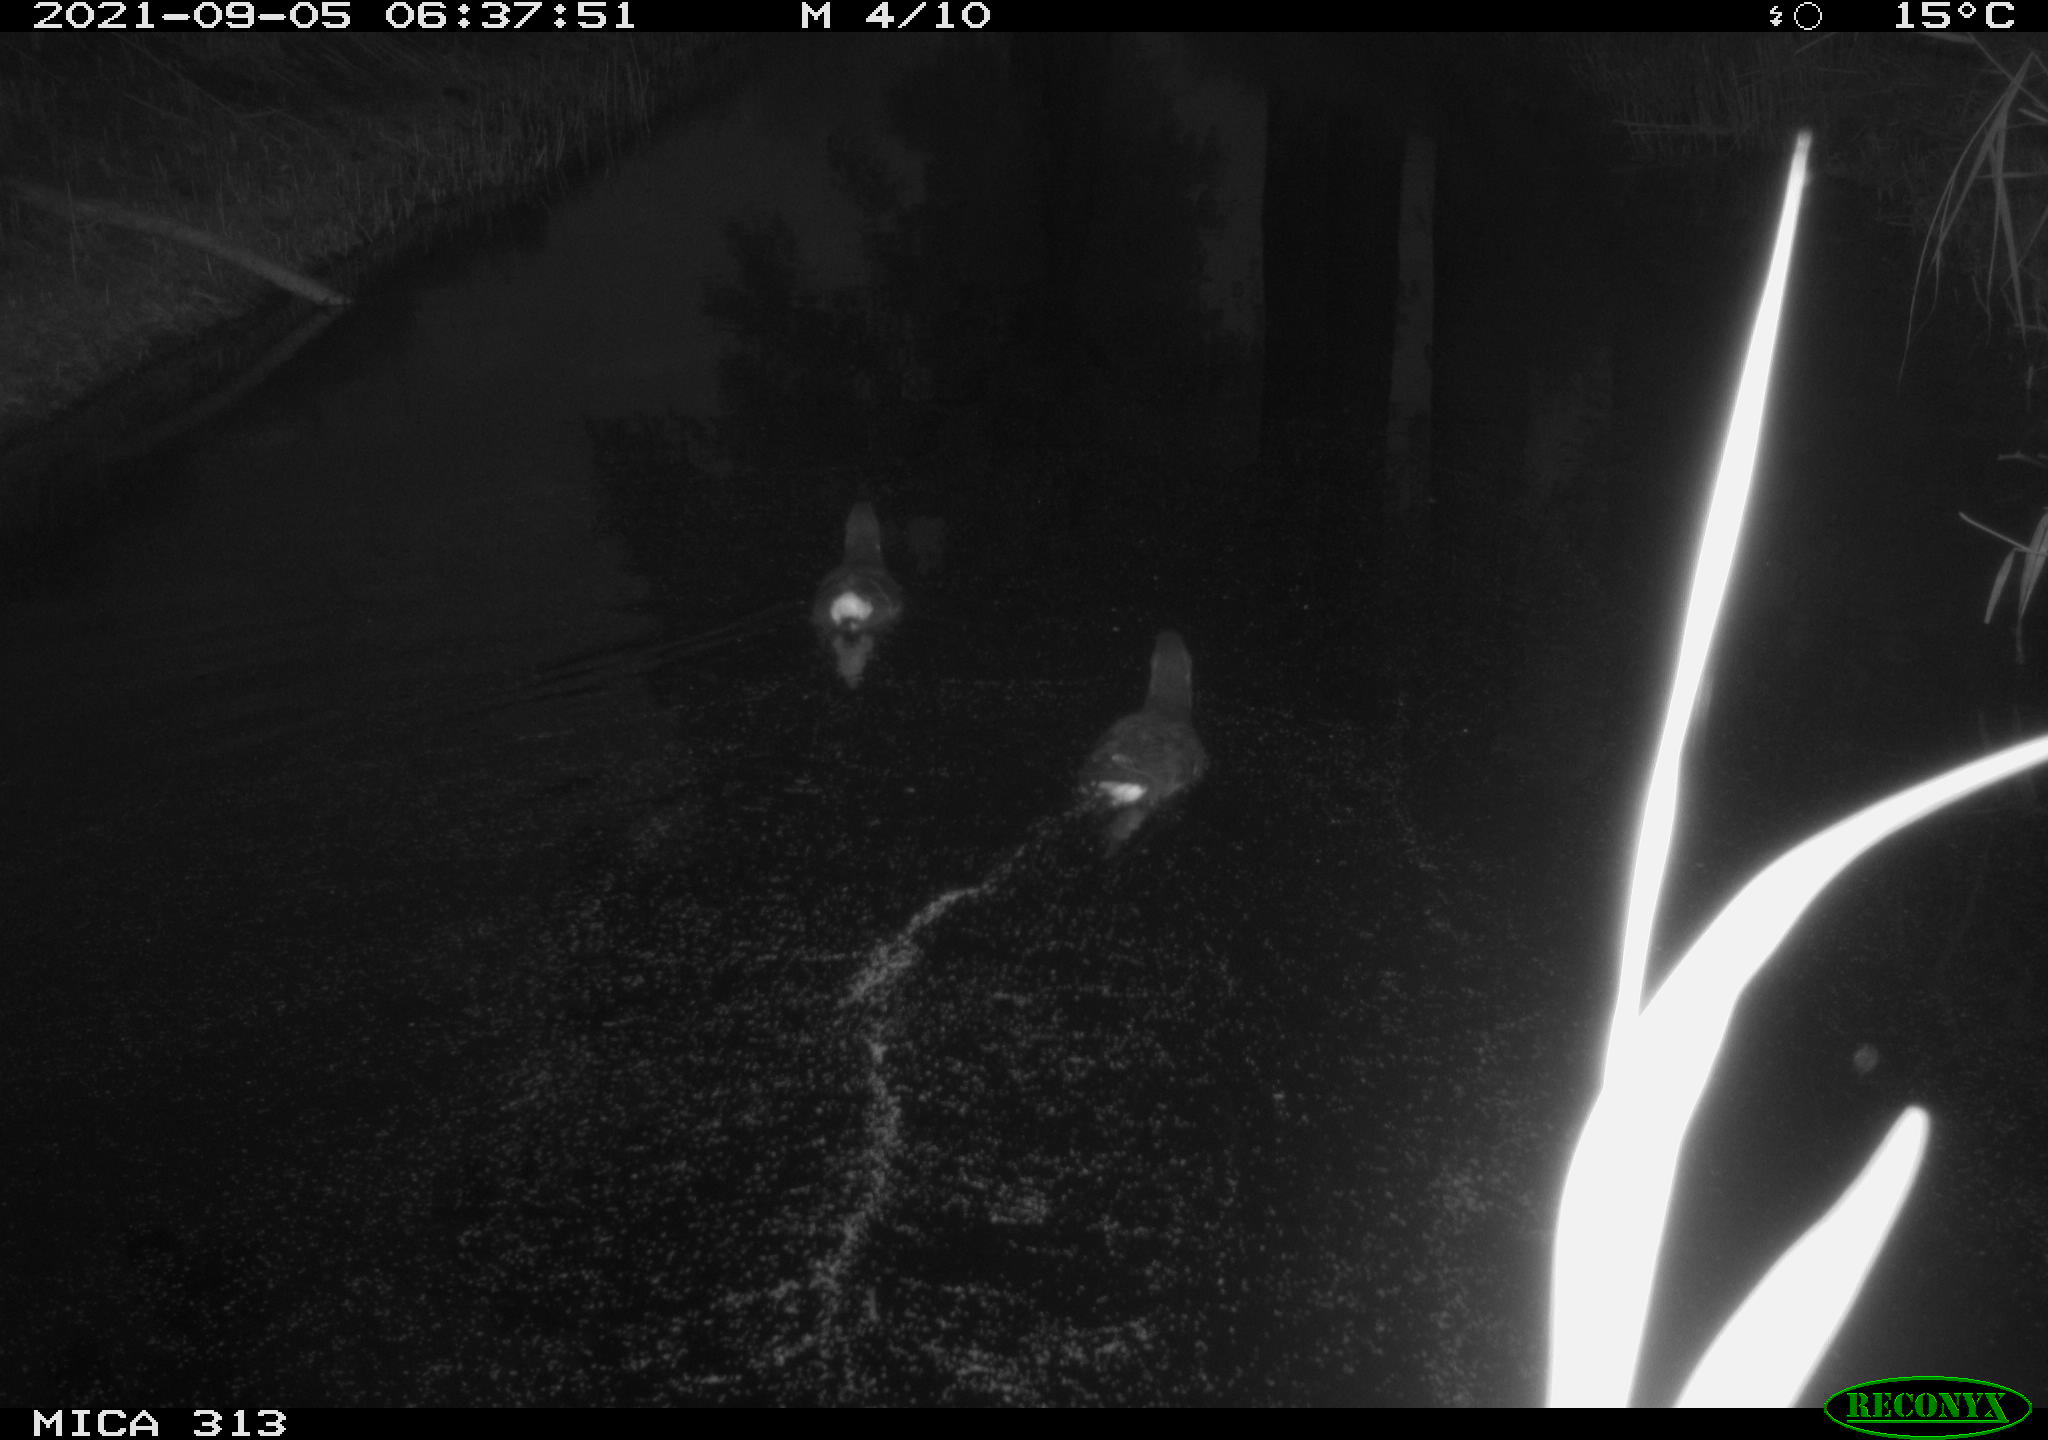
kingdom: Animalia
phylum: Chordata
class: Aves
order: Gruiformes
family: Rallidae
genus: Gallinula
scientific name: Gallinula chloropus
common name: Common moorhen
